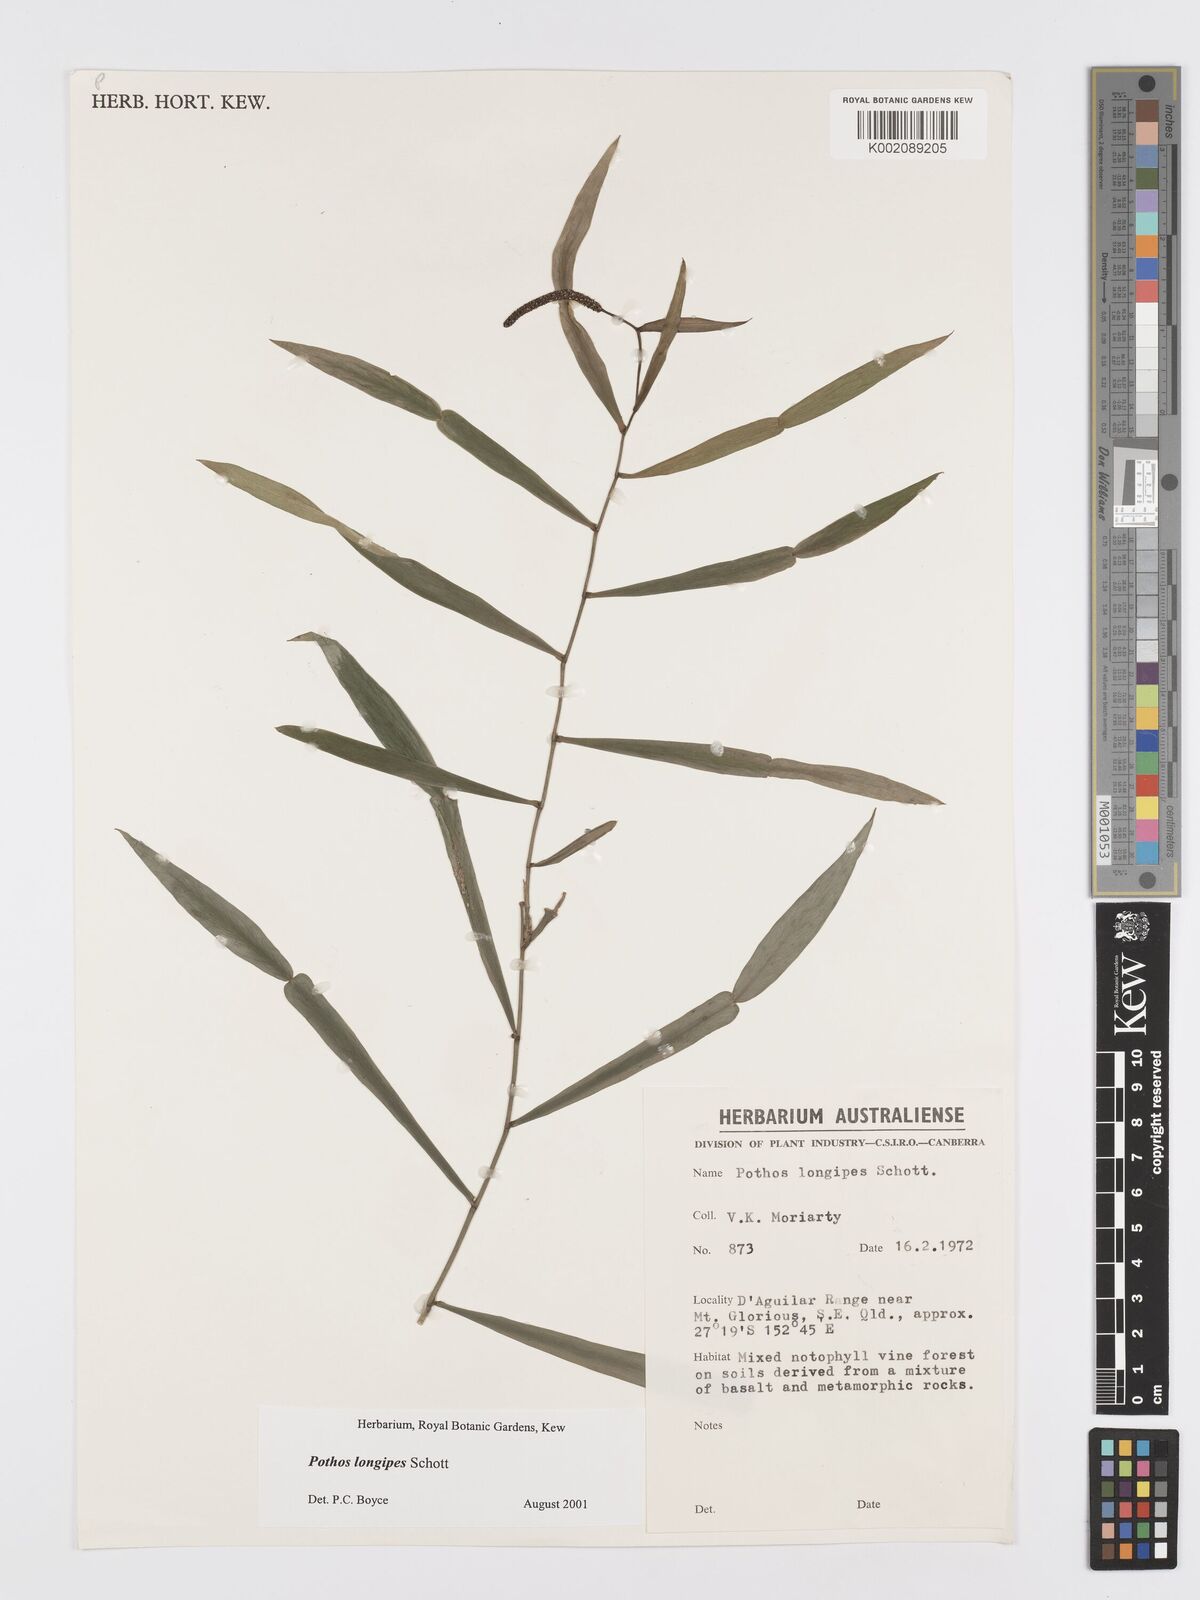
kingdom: Plantae
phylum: Tracheophyta
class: Liliopsida
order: Alismatales
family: Araceae
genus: Pothos
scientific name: Pothos longipes
